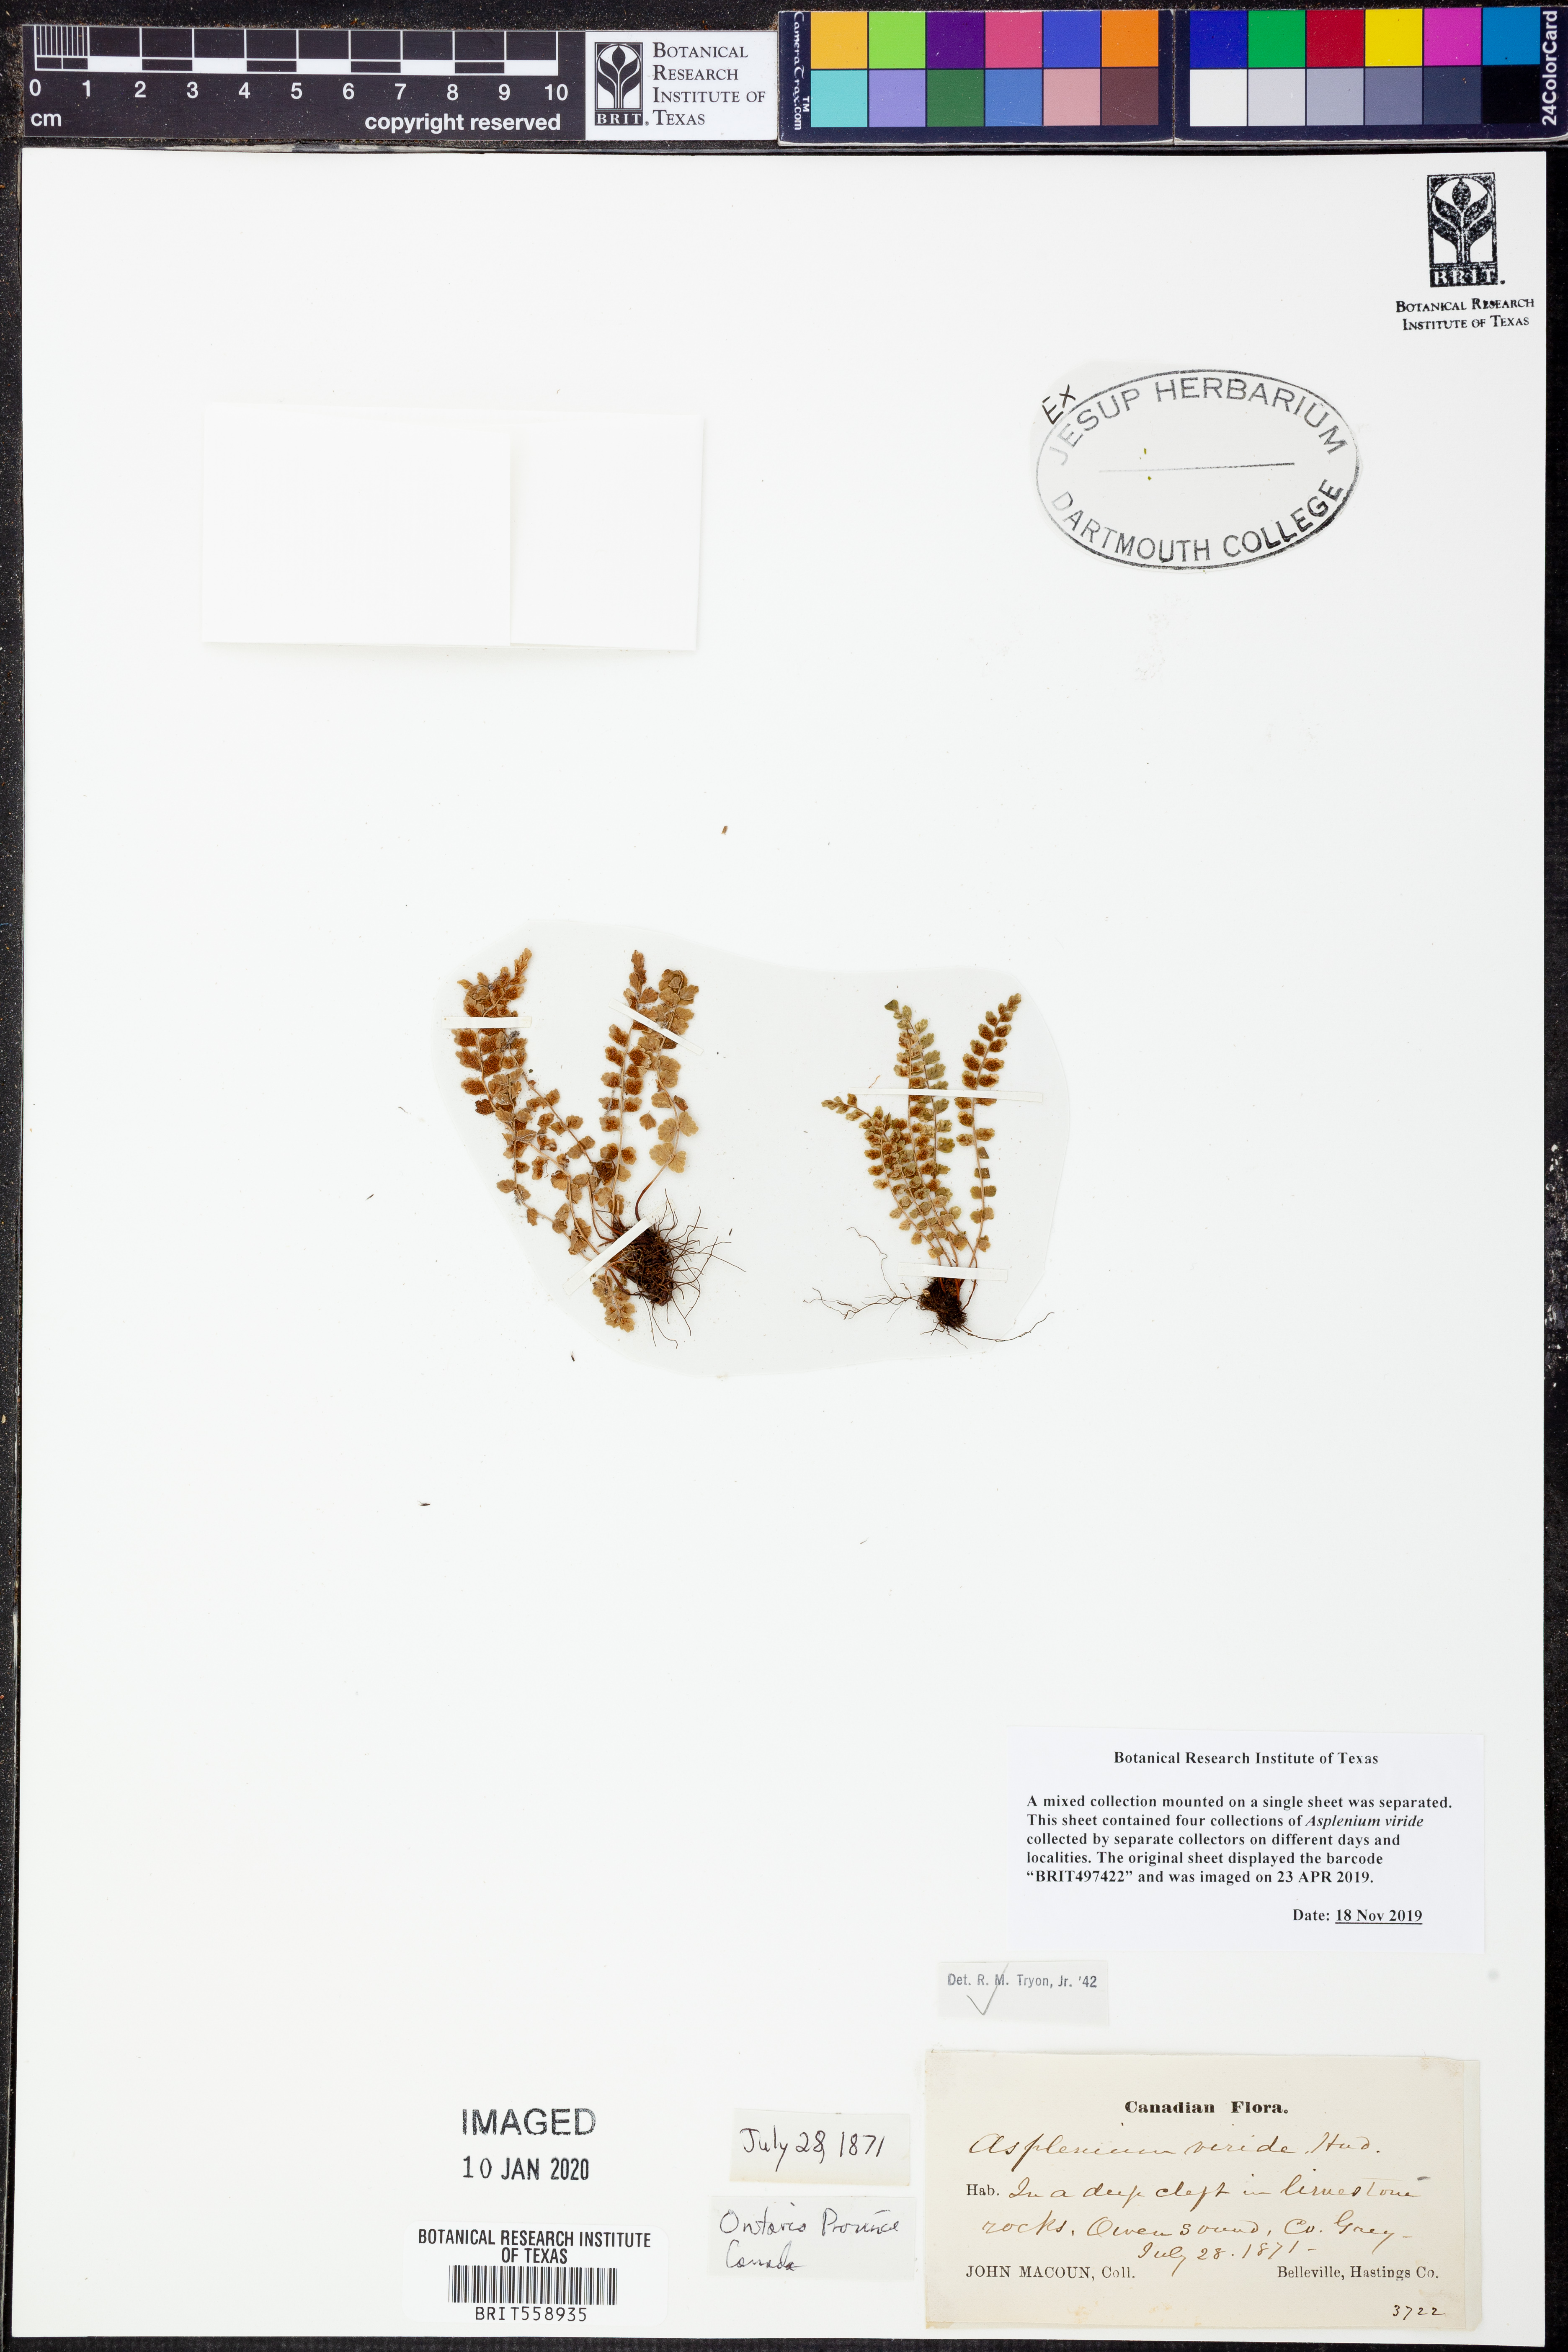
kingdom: Plantae
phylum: Tracheophyta
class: Polypodiopsida
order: Polypodiales
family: Aspleniaceae
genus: Asplenium
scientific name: Asplenium viride
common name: Green spleenwort
